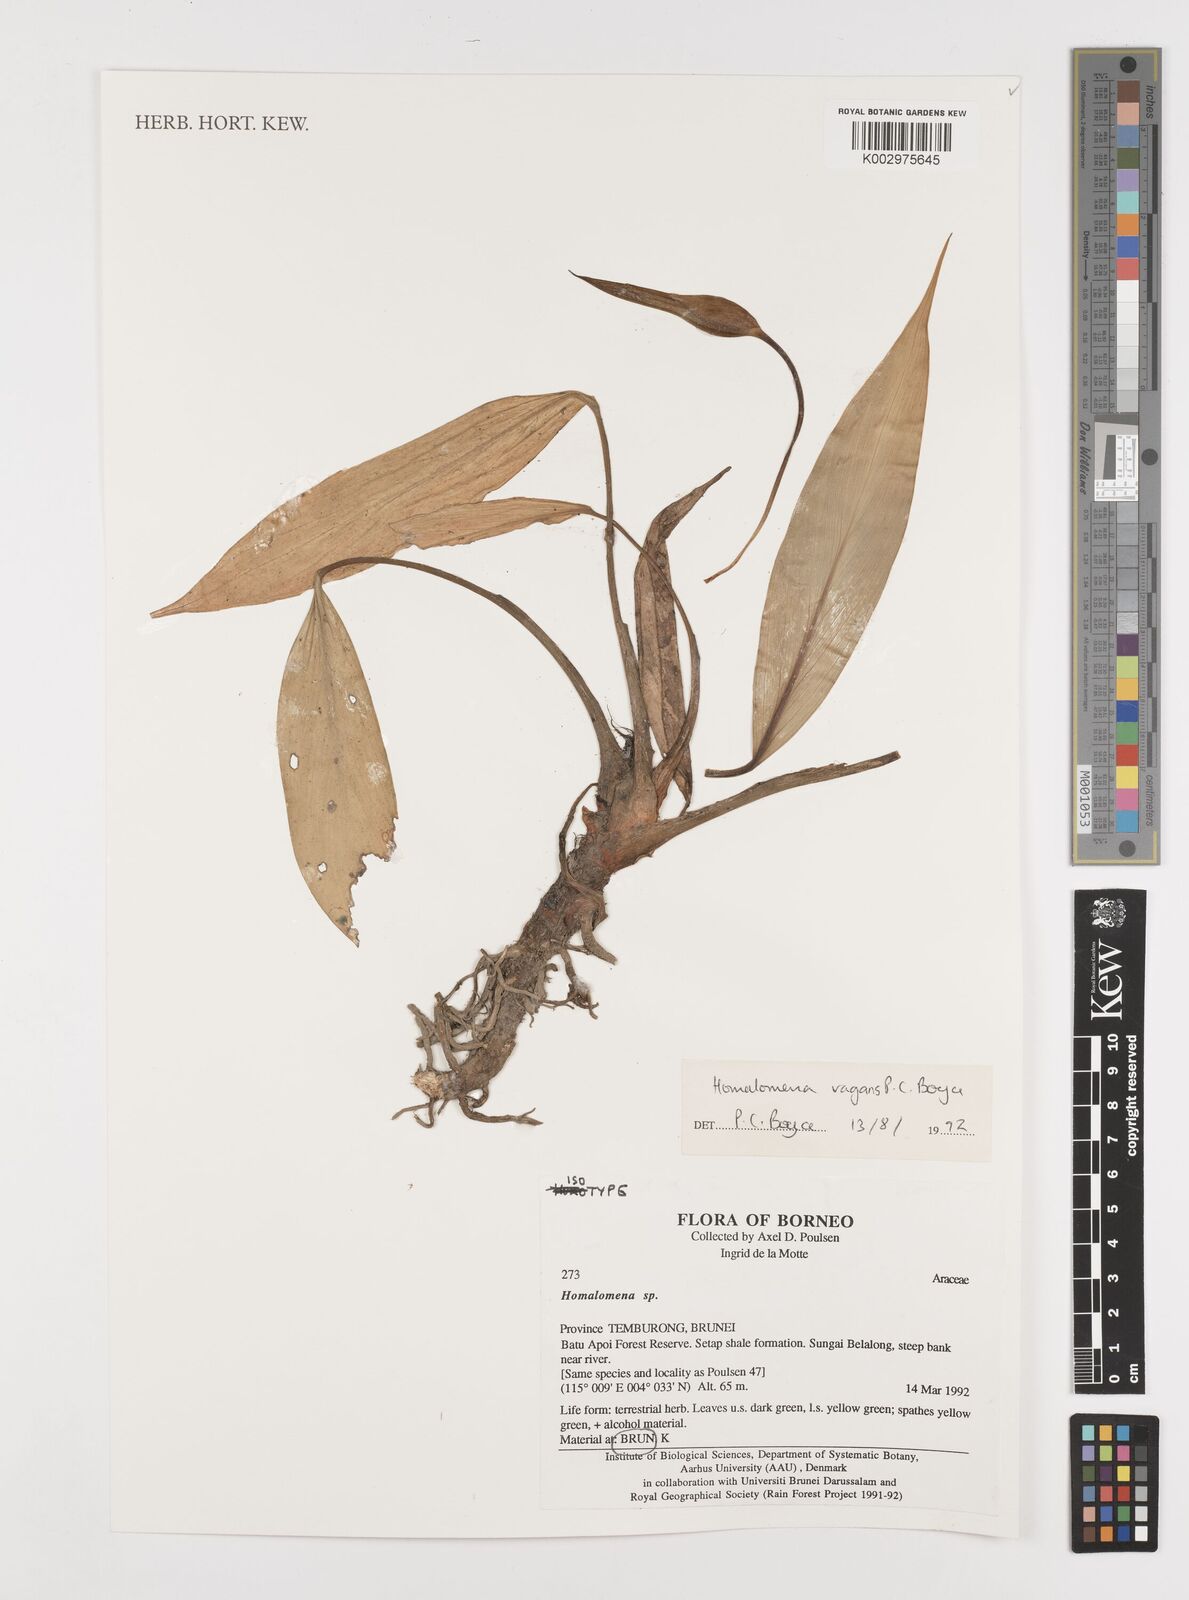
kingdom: Plantae
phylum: Tracheophyta
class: Liliopsida
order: Alismatales
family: Araceae
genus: Homalomena
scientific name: Homalomena
